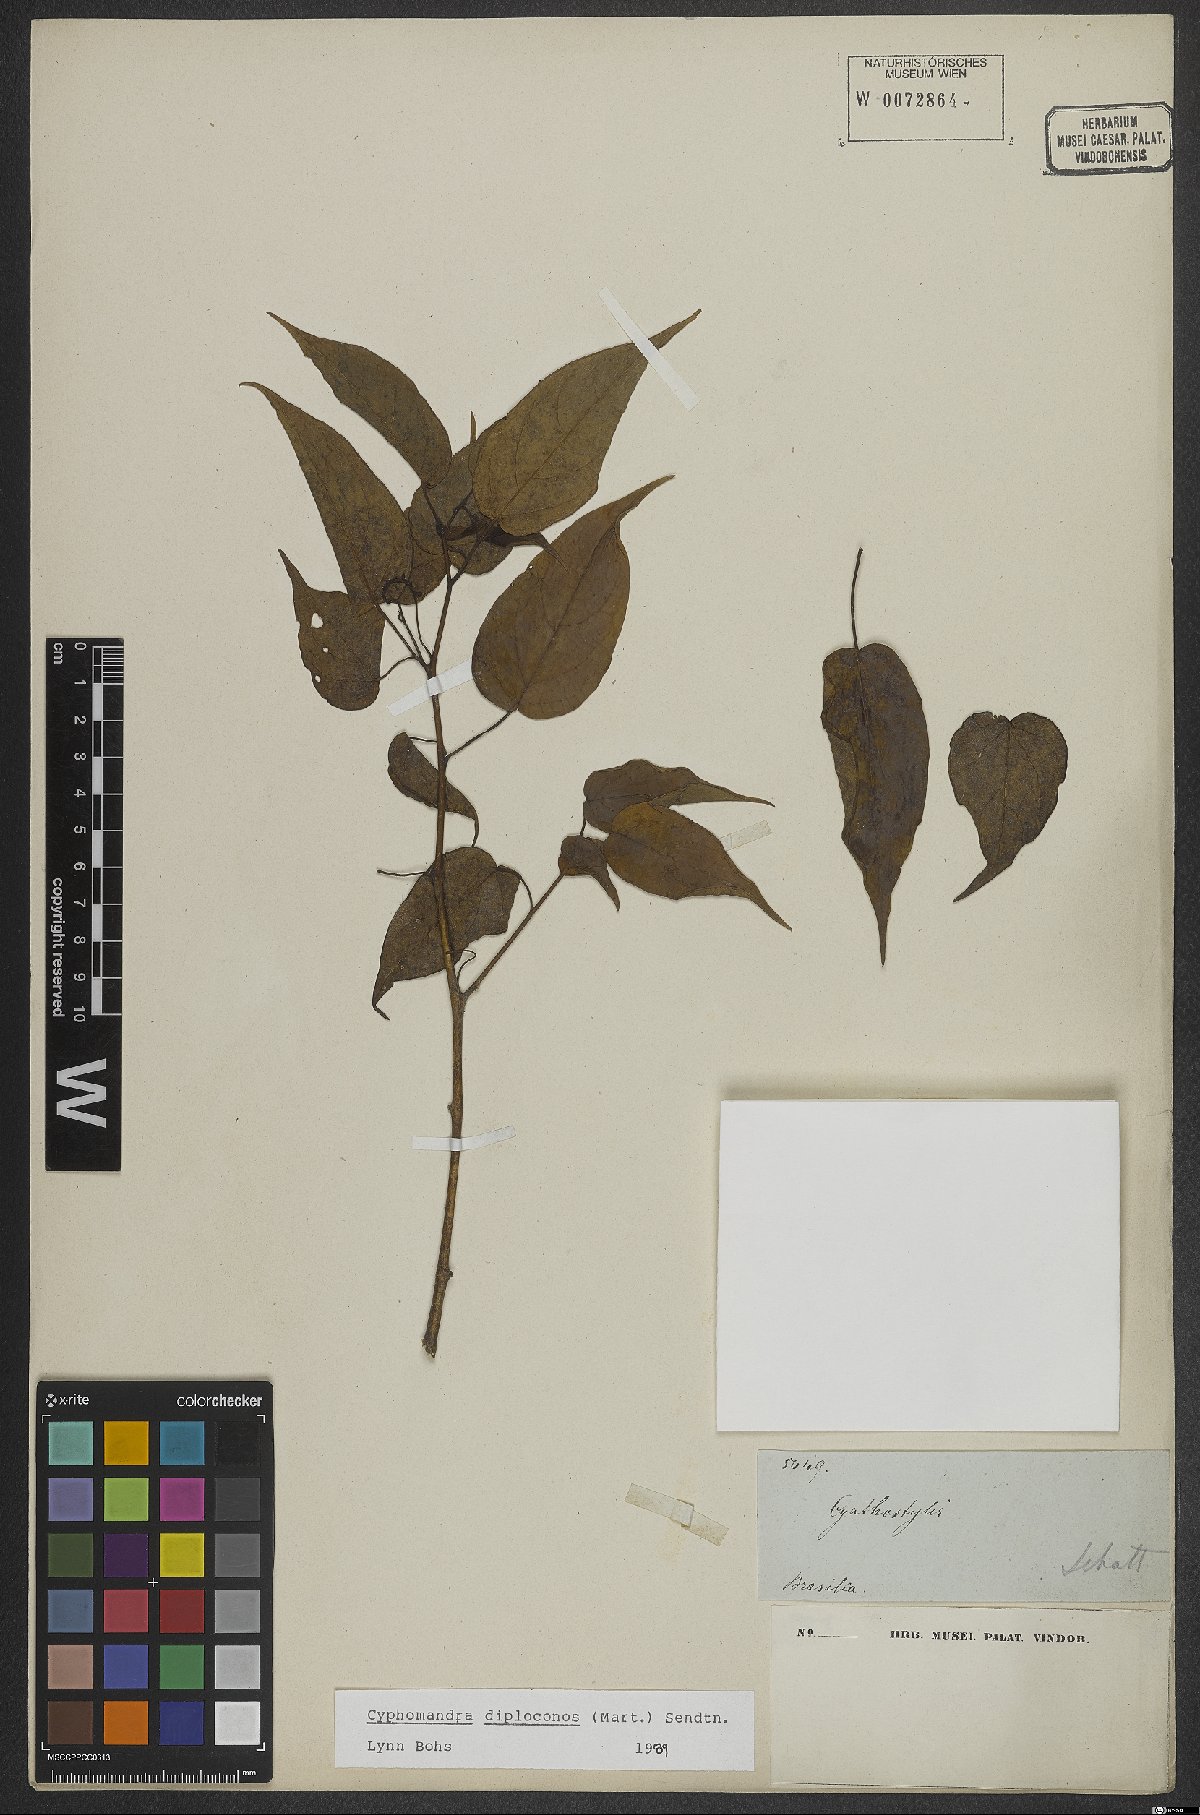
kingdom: Plantae
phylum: Tracheophyta
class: Magnoliopsida
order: Solanales
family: Solanaceae
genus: Solanum
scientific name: Solanum diploconos
